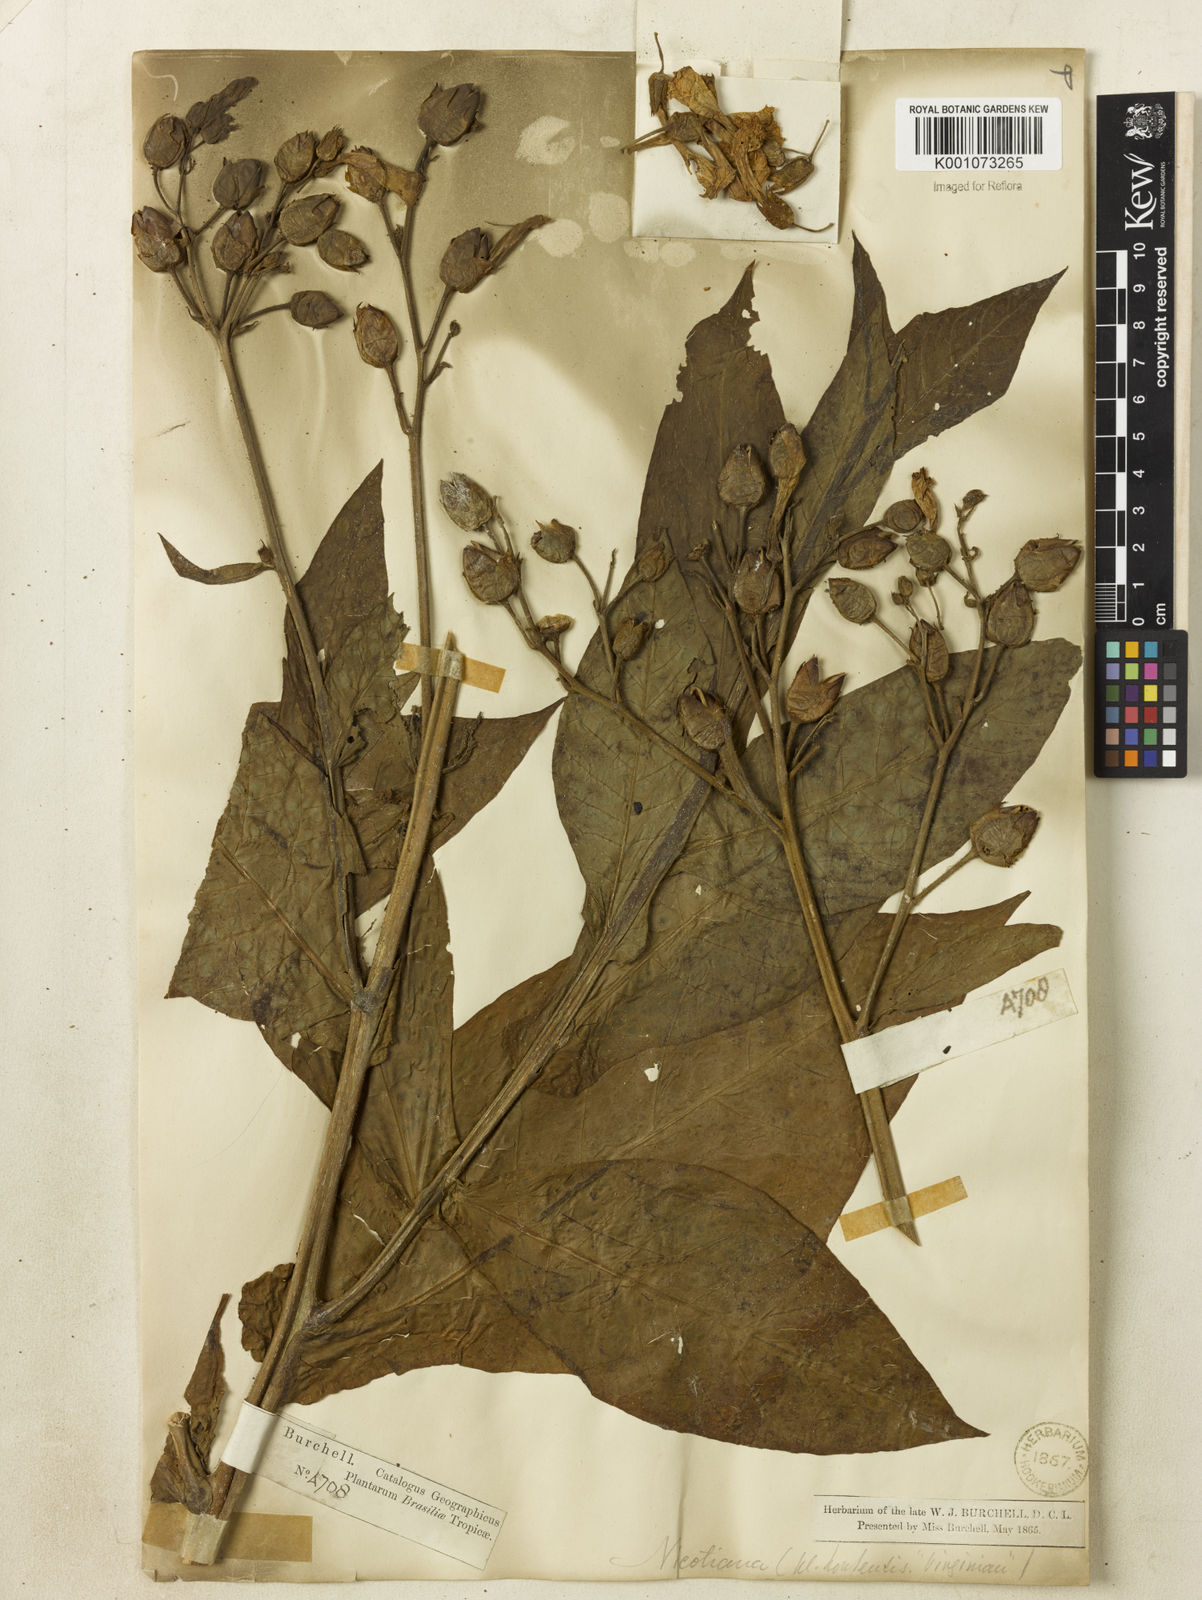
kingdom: Plantae
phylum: Tracheophyta
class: Magnoliopsida
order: Solanales
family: Solanaceae
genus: Nicotiana
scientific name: Nicotiana tabacum
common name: Tobacco
